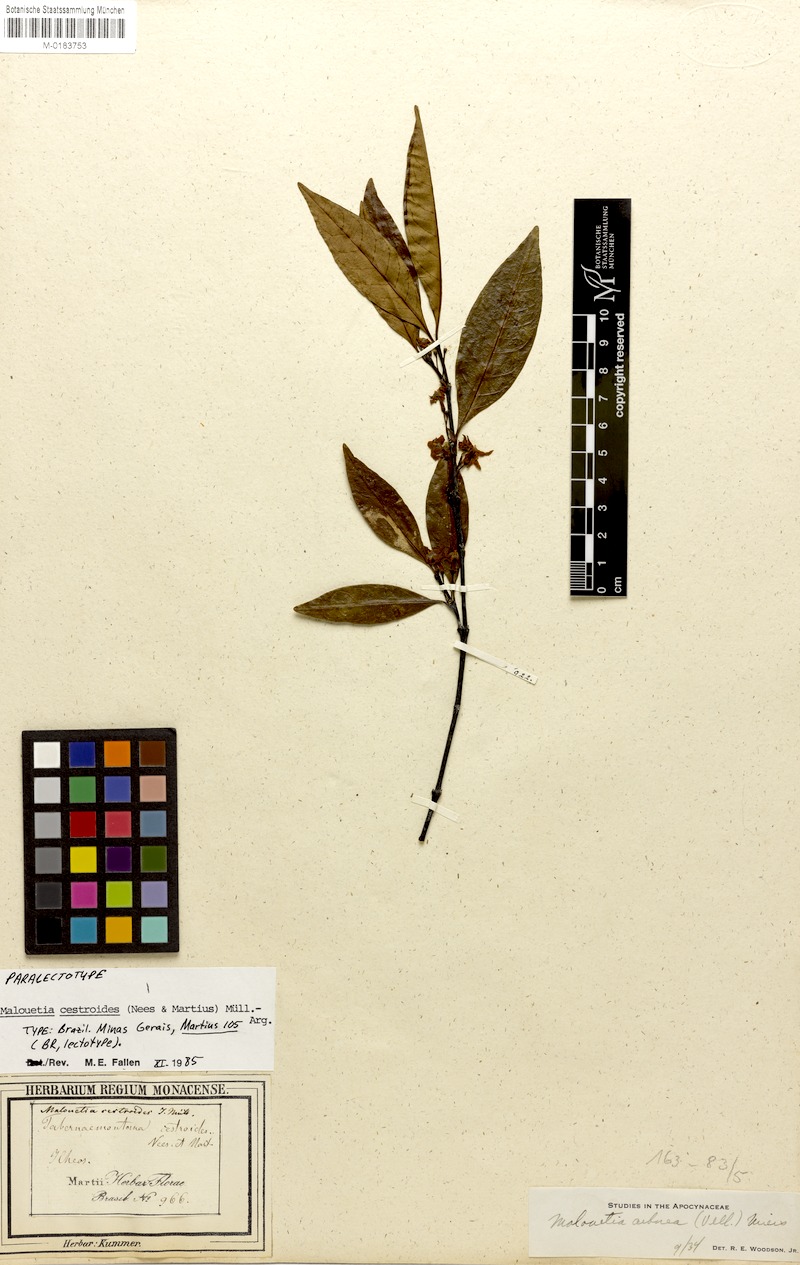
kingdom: Plantae
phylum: Tracheophyta
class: Magnoliopsida
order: Gentianales
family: Apocynaceae
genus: Malouetia
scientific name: Malouetia cestroides
